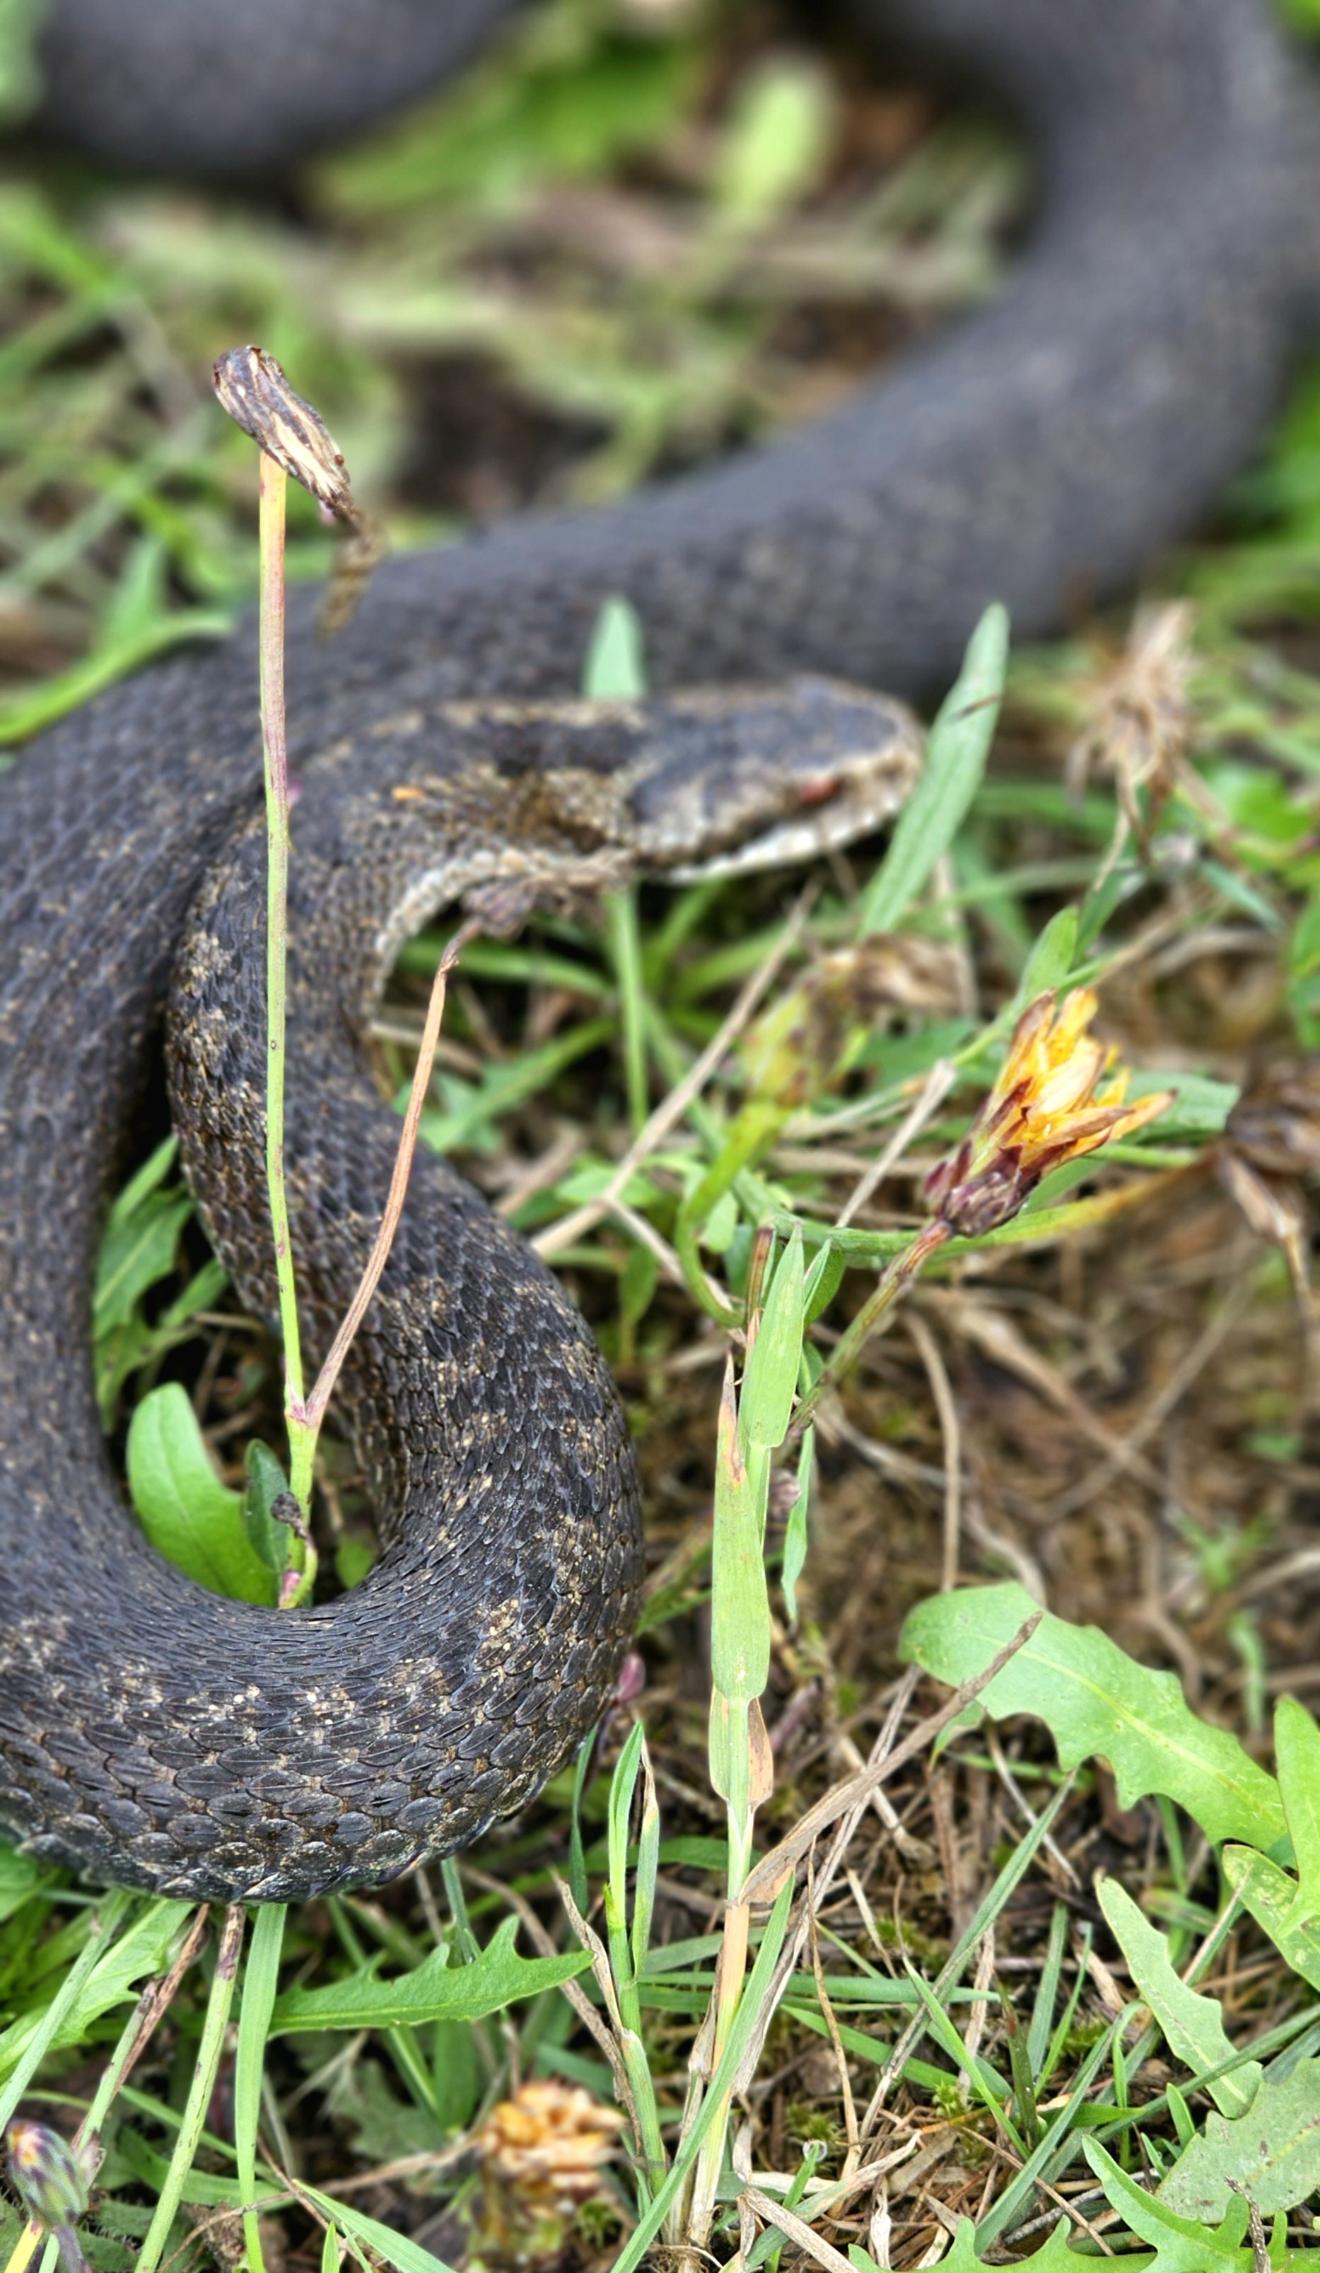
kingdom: Animalia
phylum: Chordata
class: Squamata
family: Viperidae
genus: Vipera
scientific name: Vipera berus
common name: Hugorm
